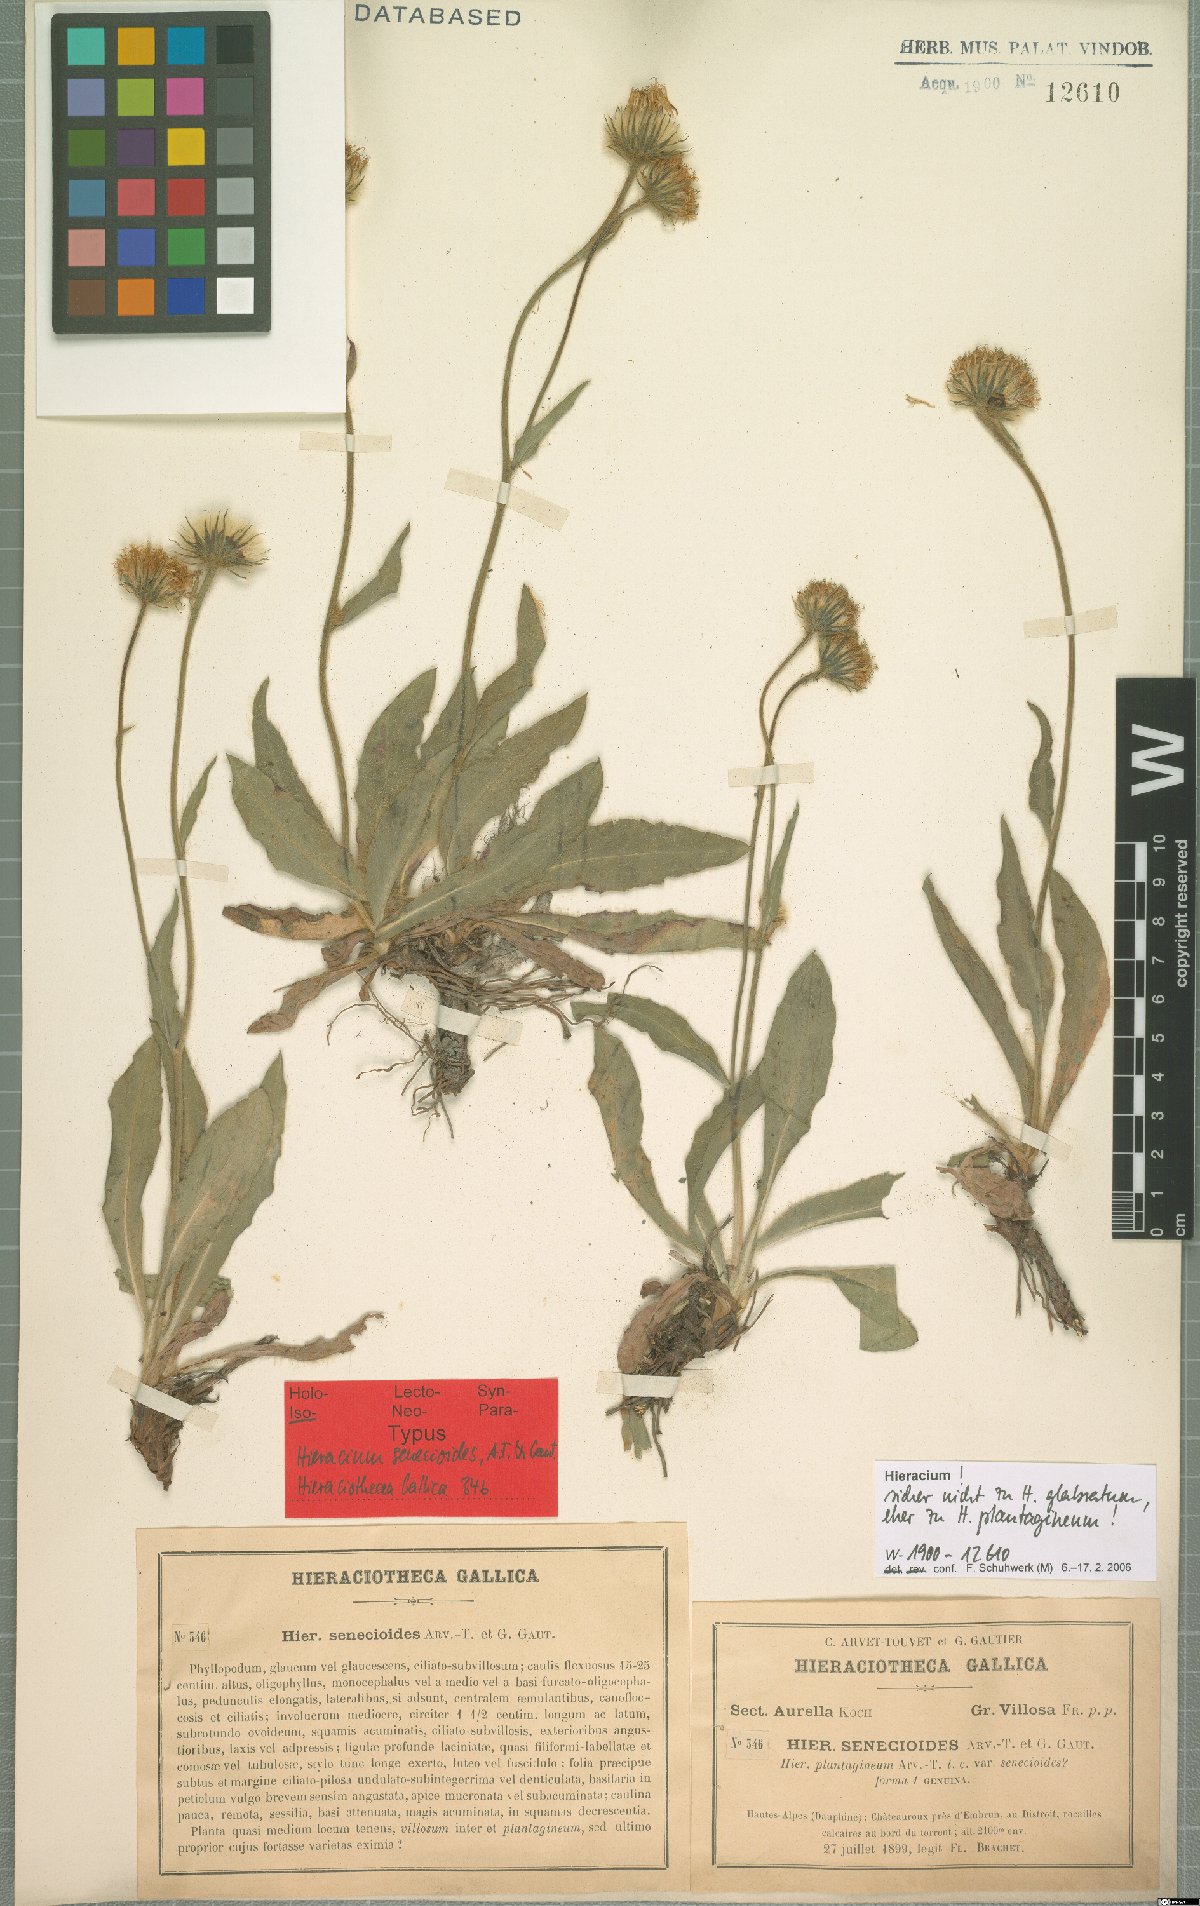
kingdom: Plantae
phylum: Tracheophyta
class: Magnoliopsida
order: Asterales
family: Asteraceae
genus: Hieracium
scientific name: Hieracium plantagineum
